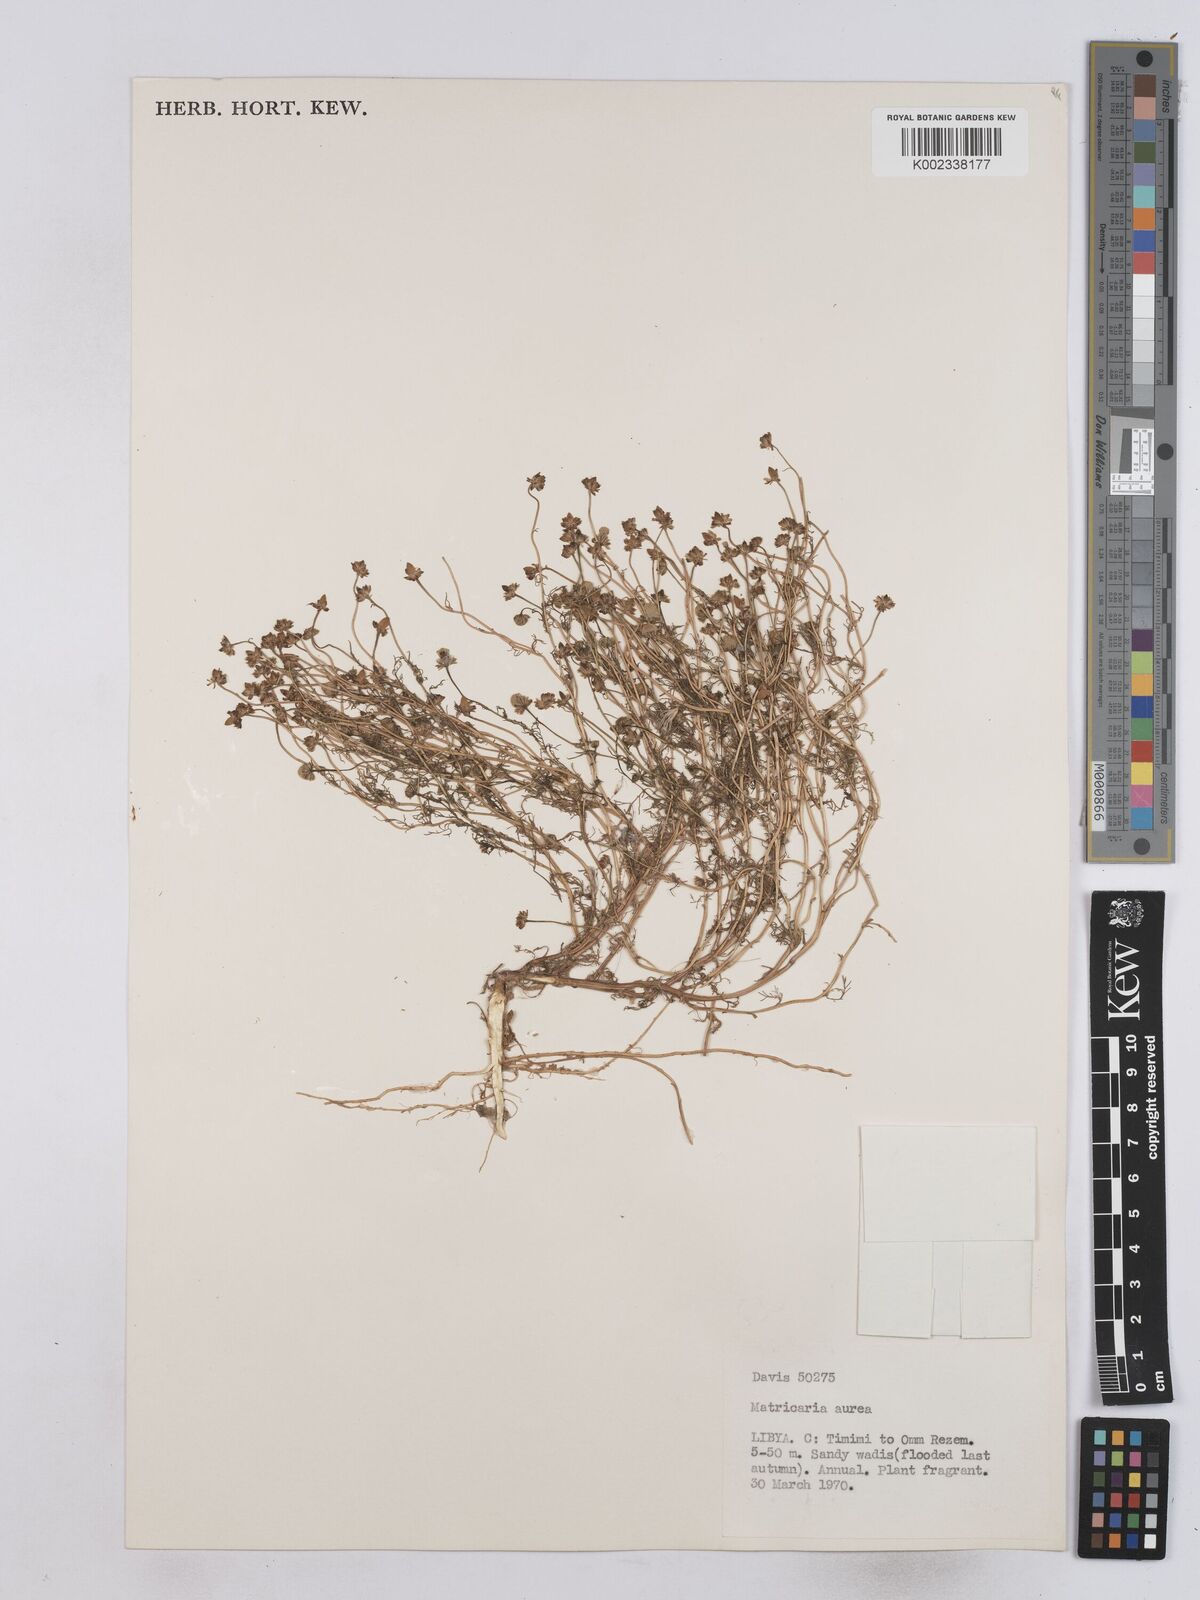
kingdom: Plantae
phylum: Tracheophyta
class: Magnoliopsida
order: Asterales
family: Asteraceae
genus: Matricaria
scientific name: Matricaria aurea
